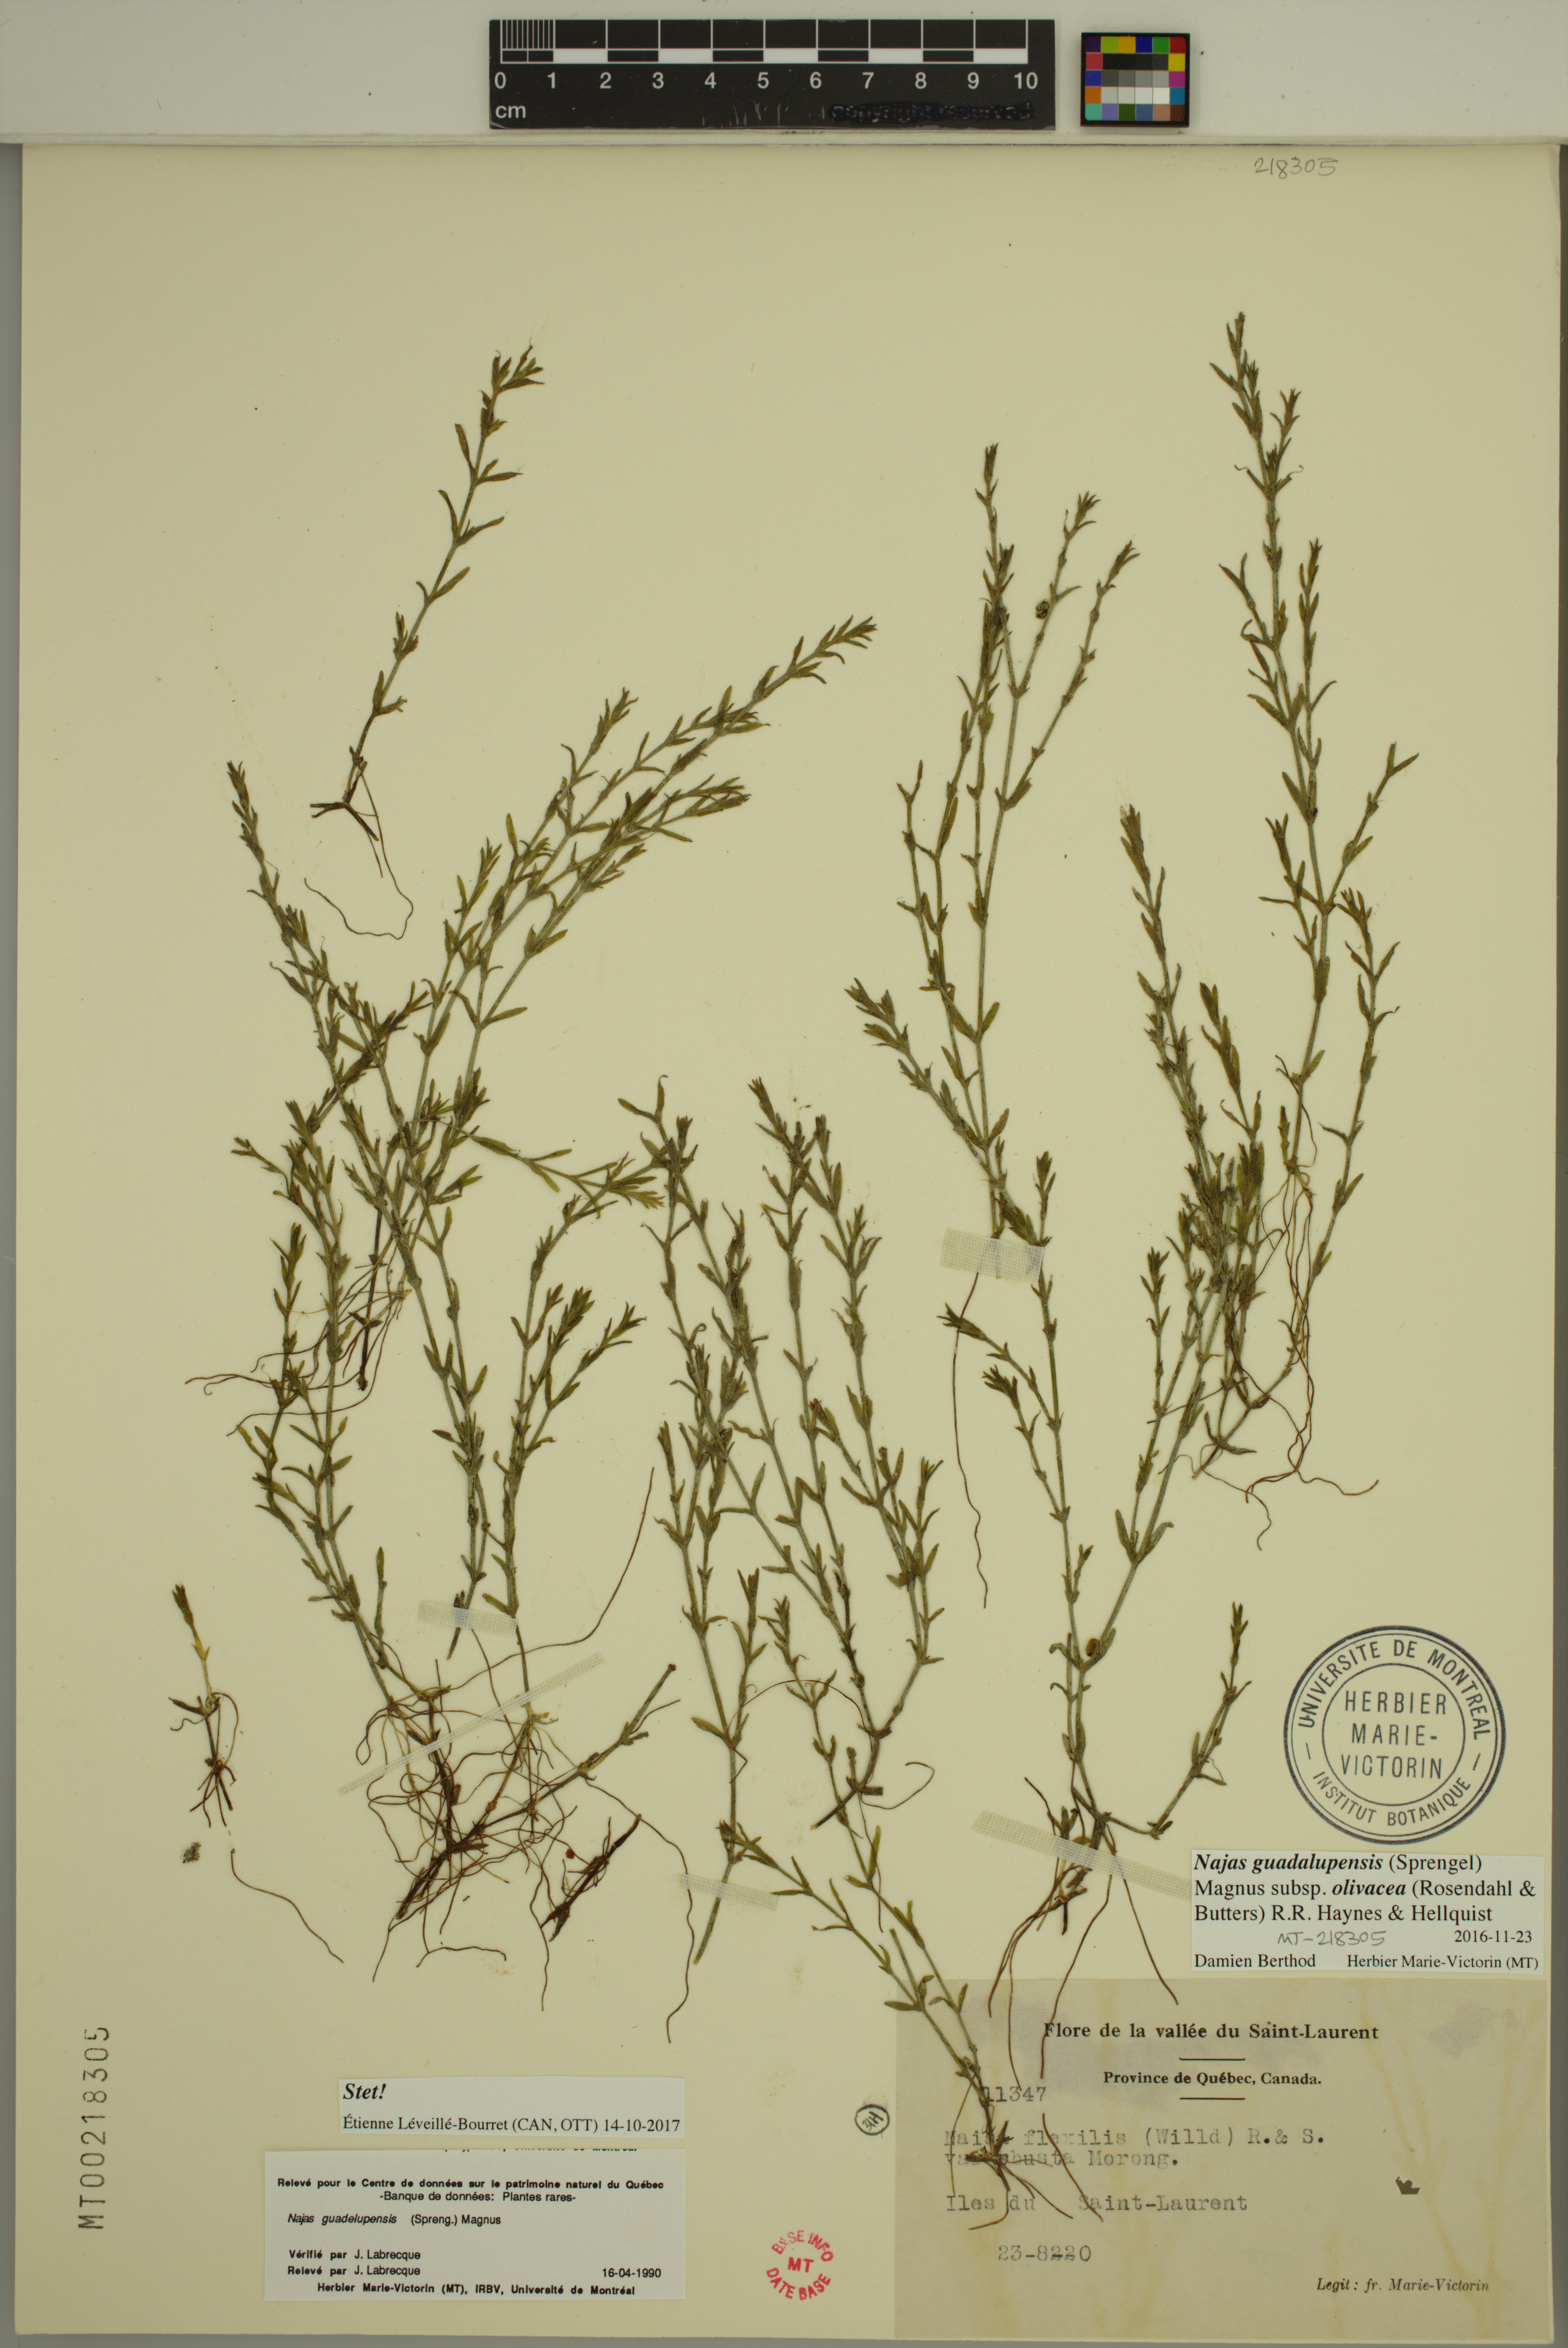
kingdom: Plantae
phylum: Tracheophyta
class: Liliopsida
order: Alismatales
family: Hydrocharitaceae
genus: Najas
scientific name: Najas guadalupensis
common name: Southern naiad
